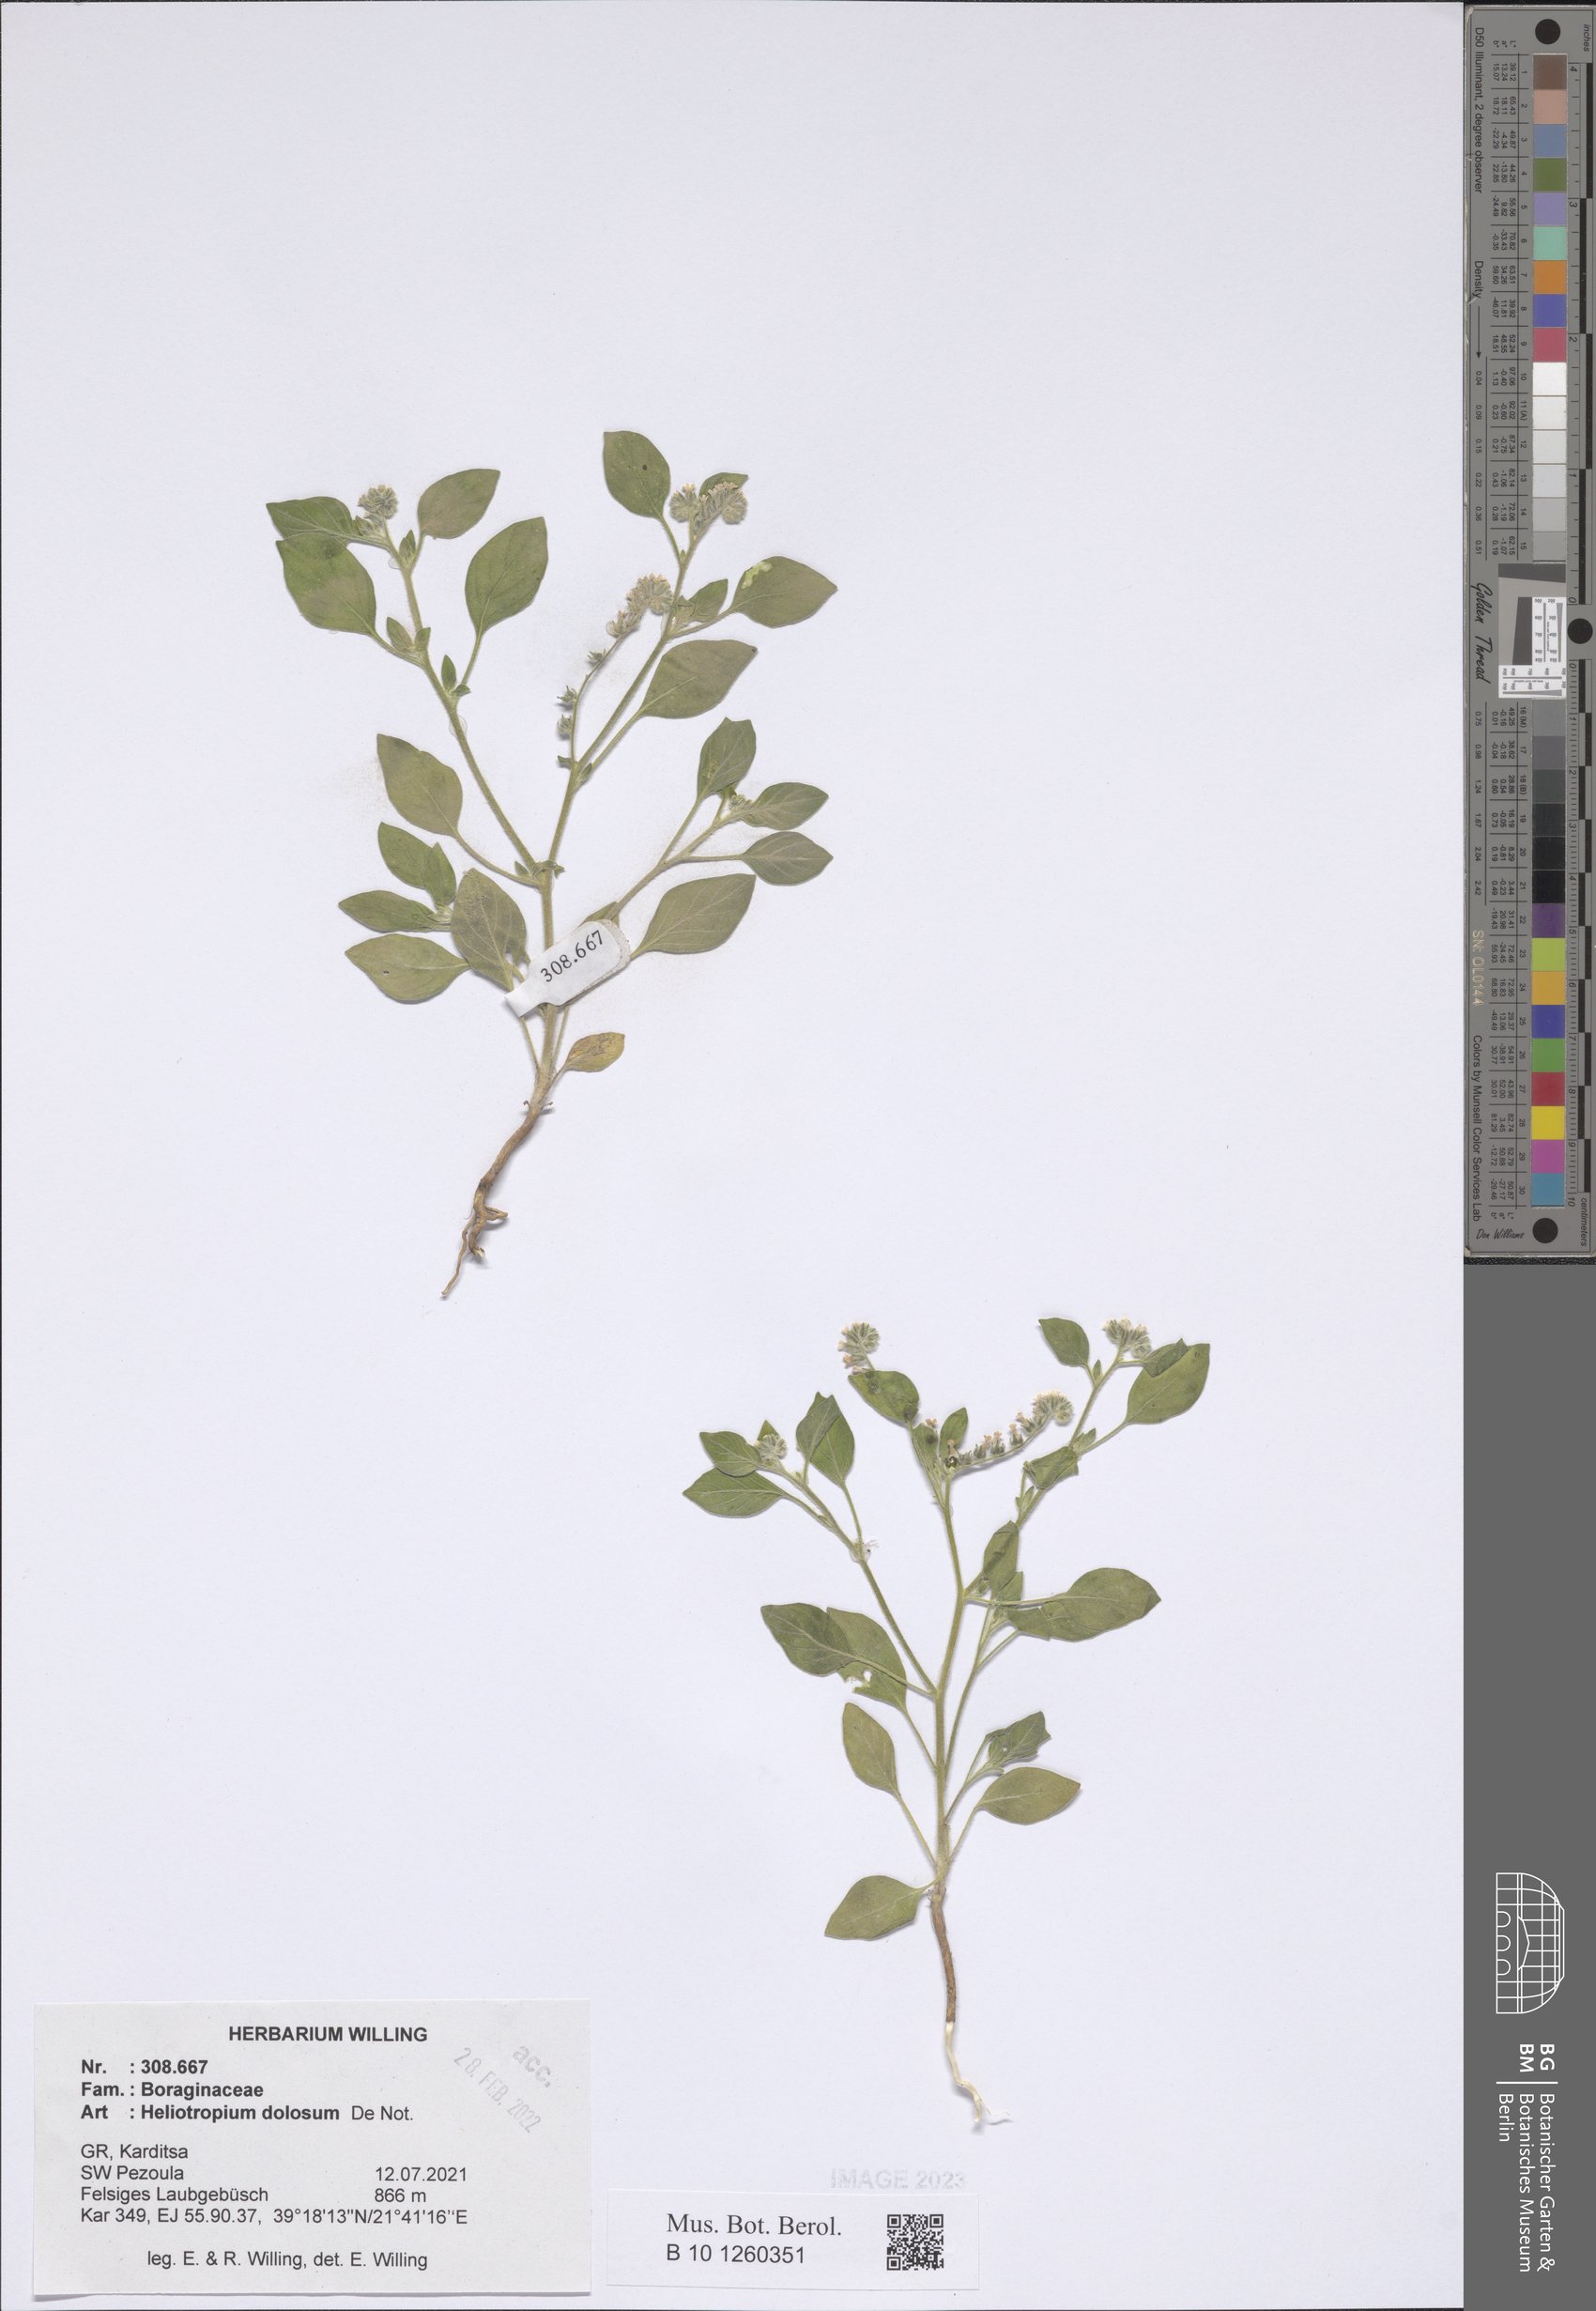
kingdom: Plantae
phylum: Tracheophyta
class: Magnoliopsida
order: Boraginales
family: Heliotropiaceae
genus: Heliotropium
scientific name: Heliotropium dolosum
